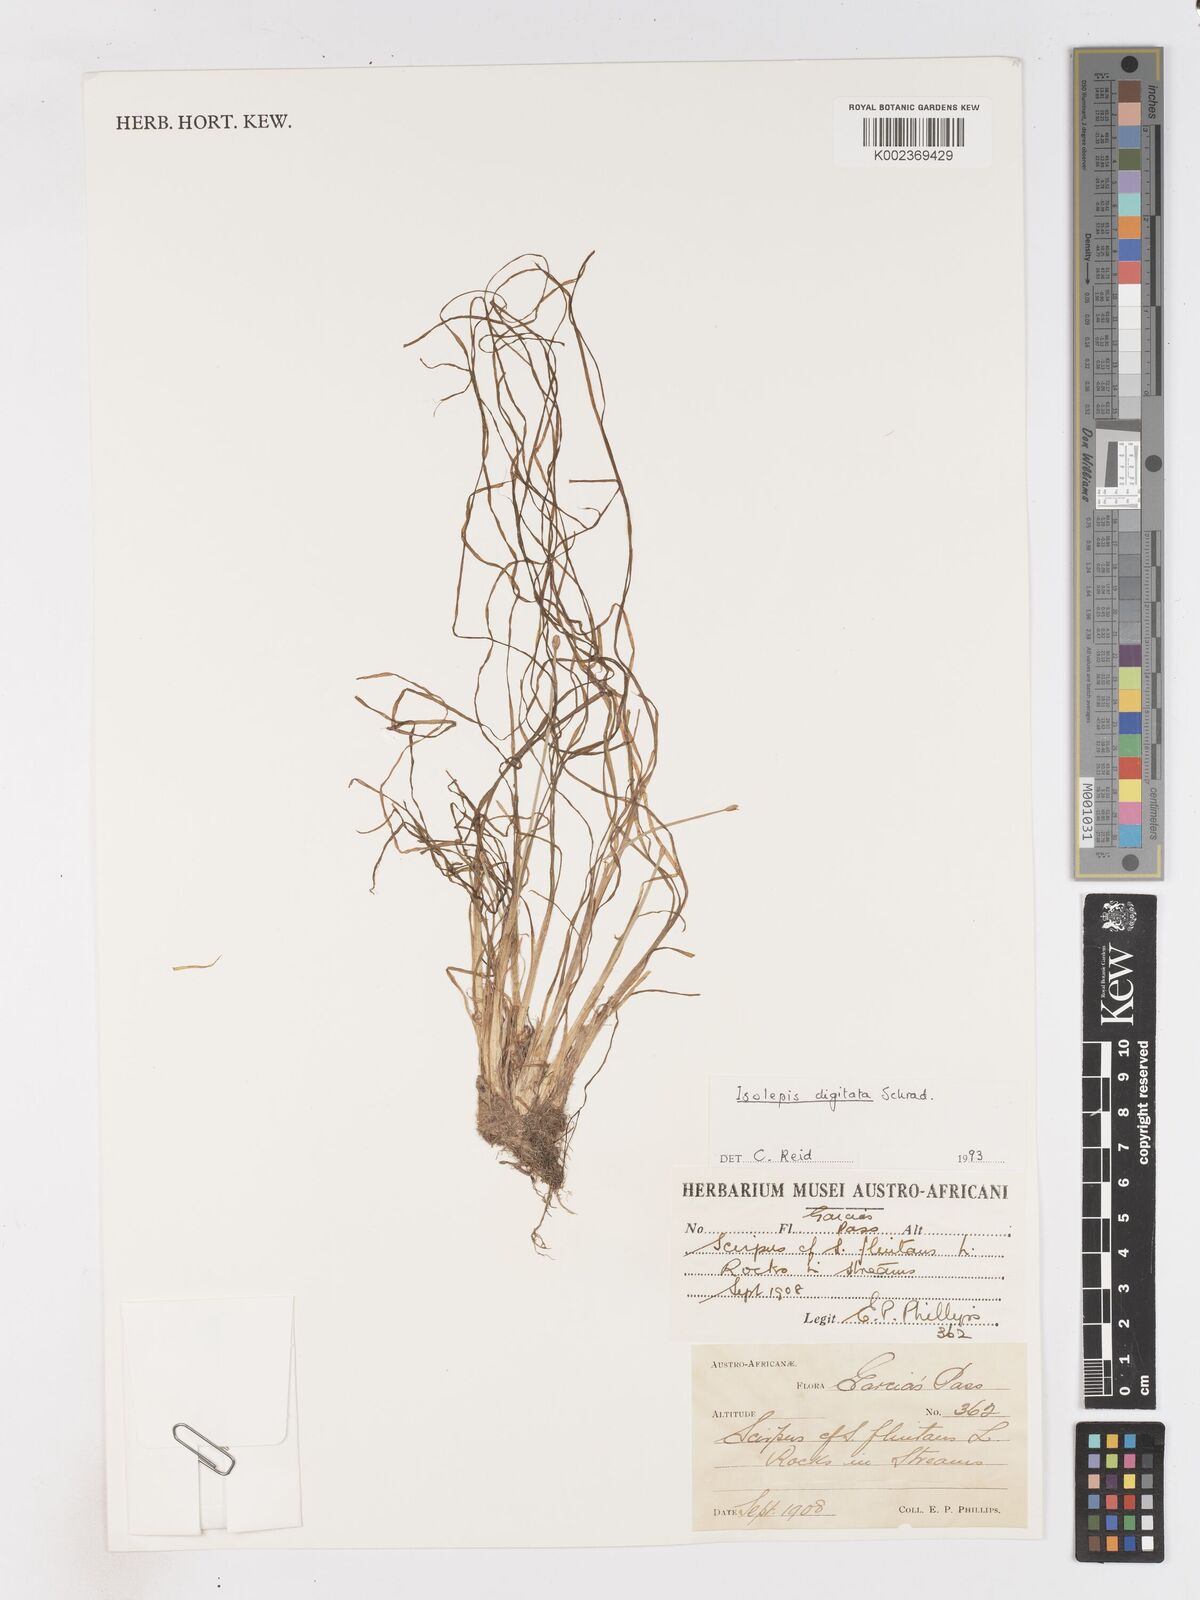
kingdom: Plantae
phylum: Tracheophyta
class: Liliopsida
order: Poales
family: Cyperaceae
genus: Isolepis
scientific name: Isolepis digitata
